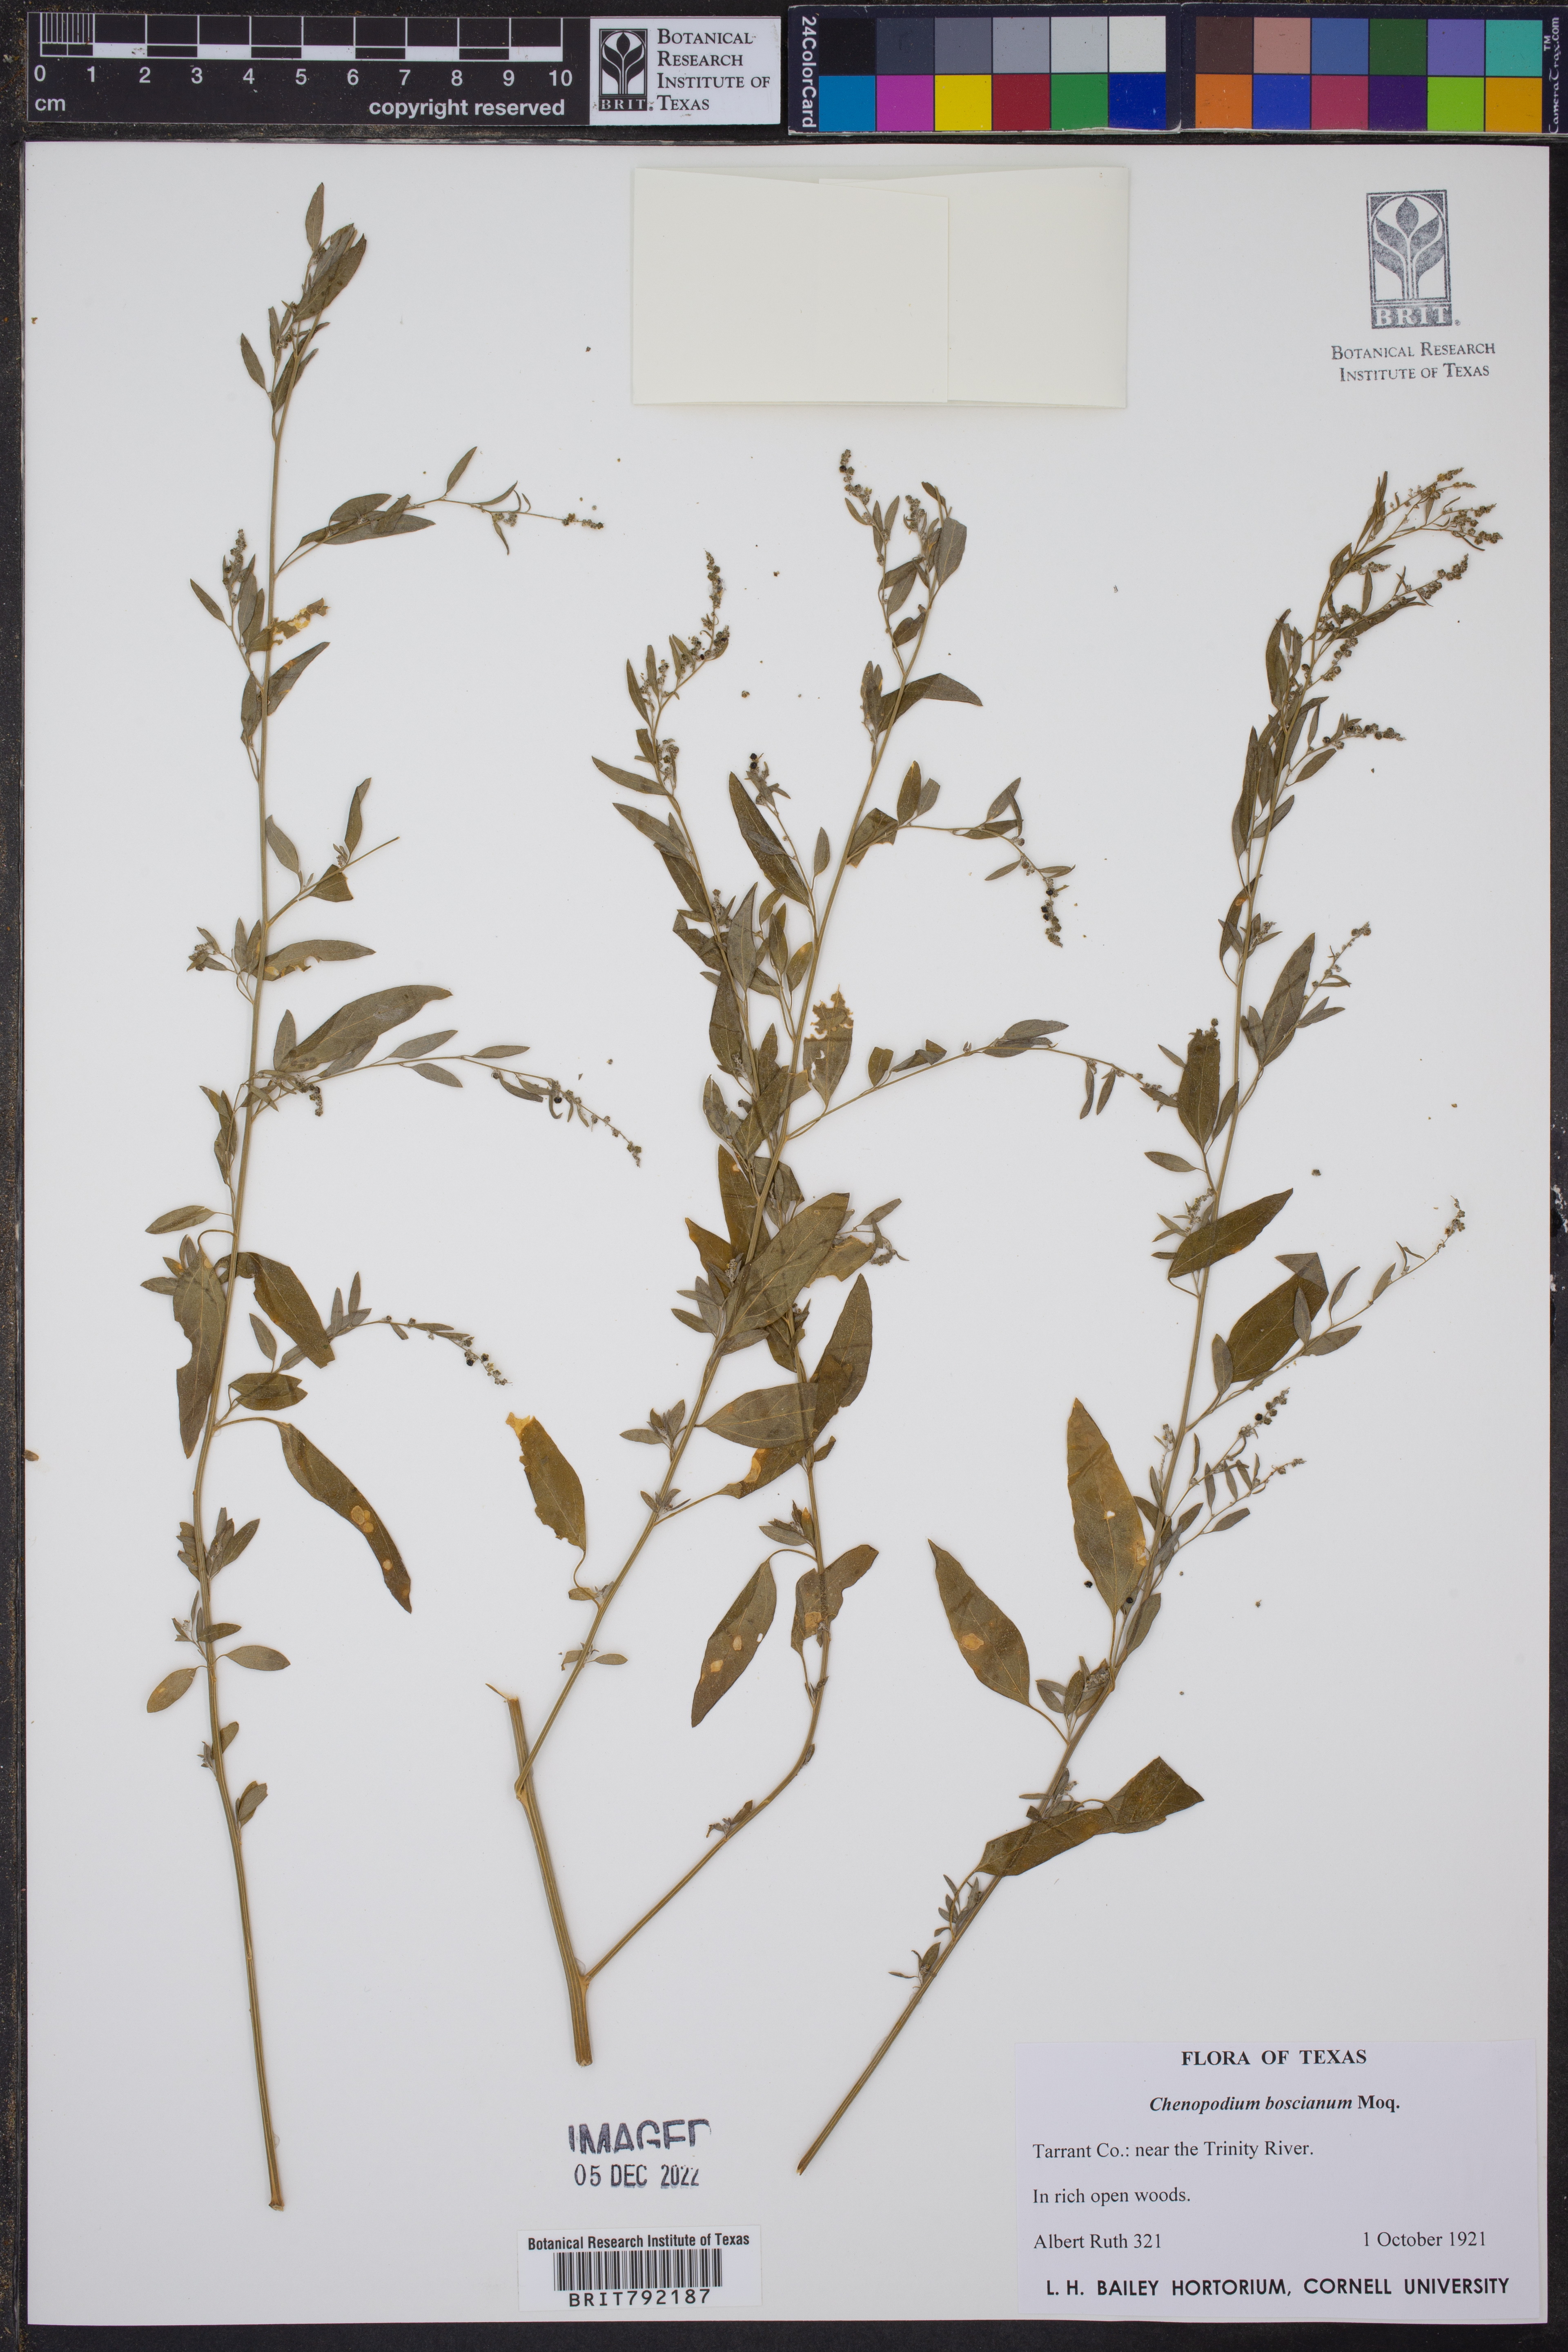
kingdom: Plantae
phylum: Tracheophyta
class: Magnoliopsida
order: Caryophyllales
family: Amaranthaceae
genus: Chenopodium
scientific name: Chenopodium berlandieri
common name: Pit-seed goosefoot
